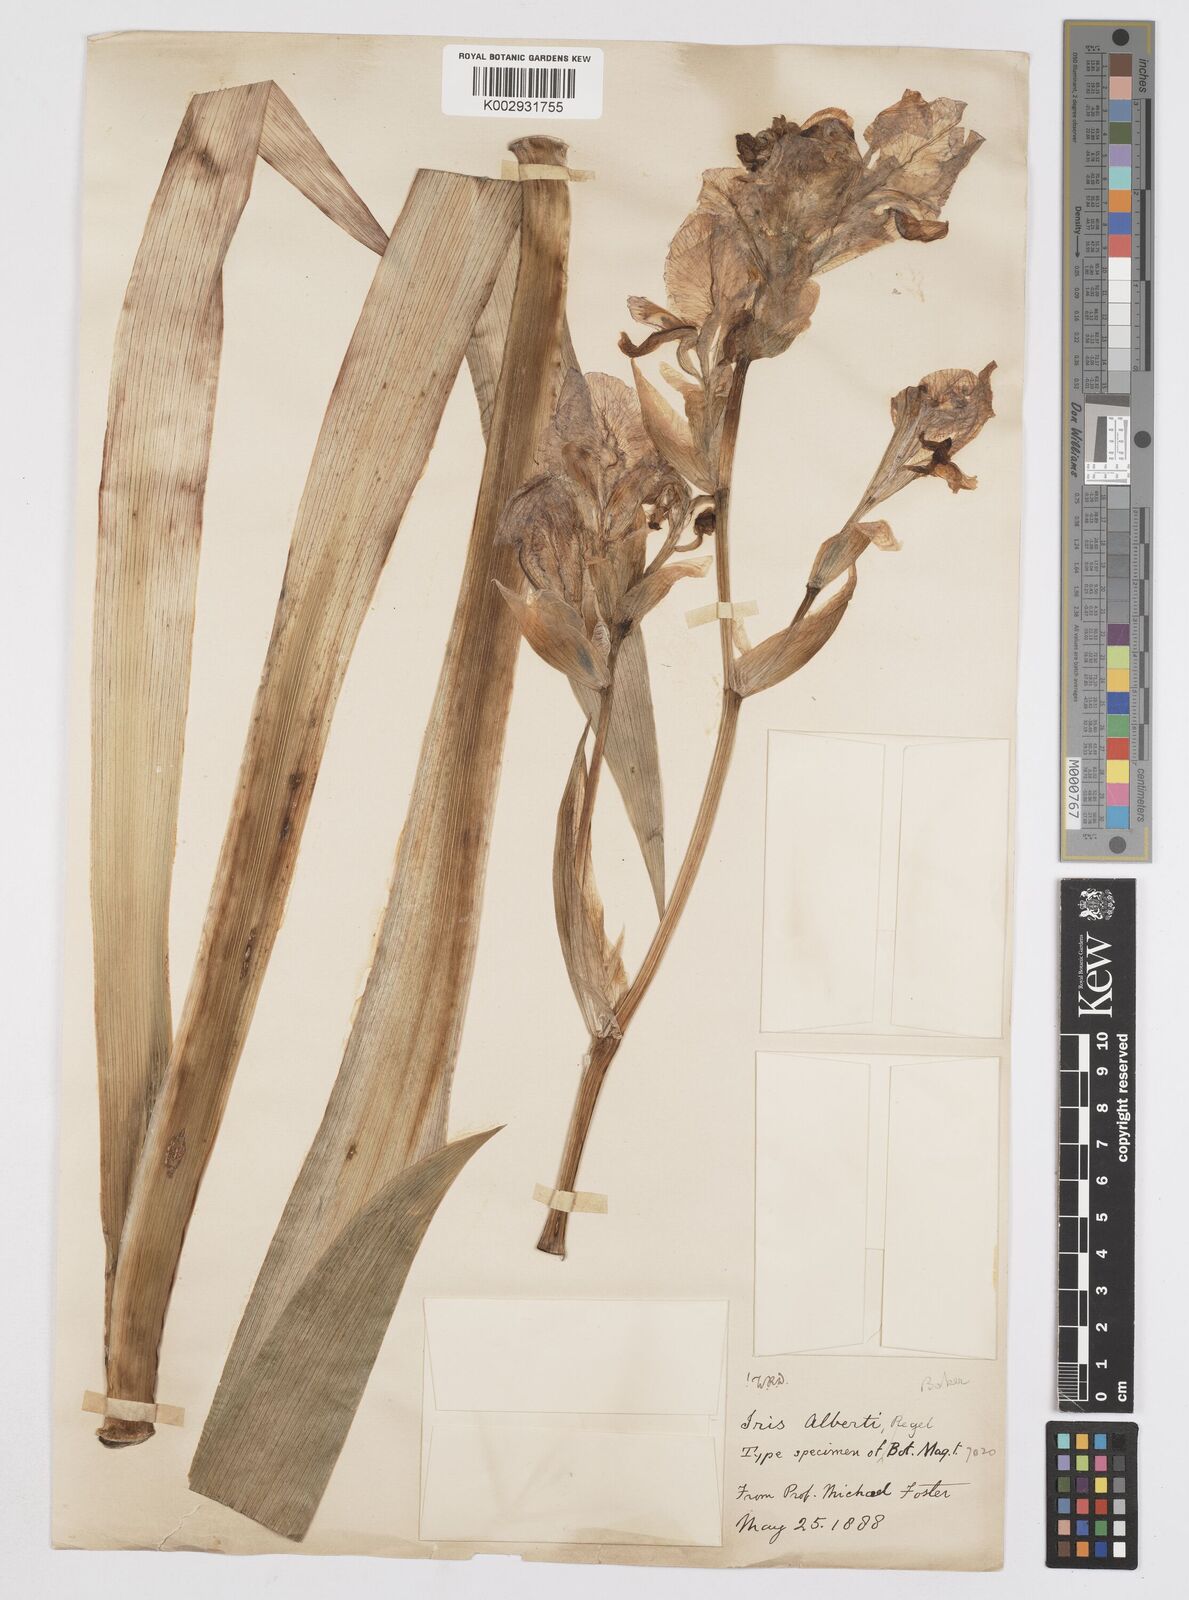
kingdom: Plantae
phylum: Tracheophyta
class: Liliopsida
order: Asparagales
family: Iridaceae
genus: Iris
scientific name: Iris alberti
